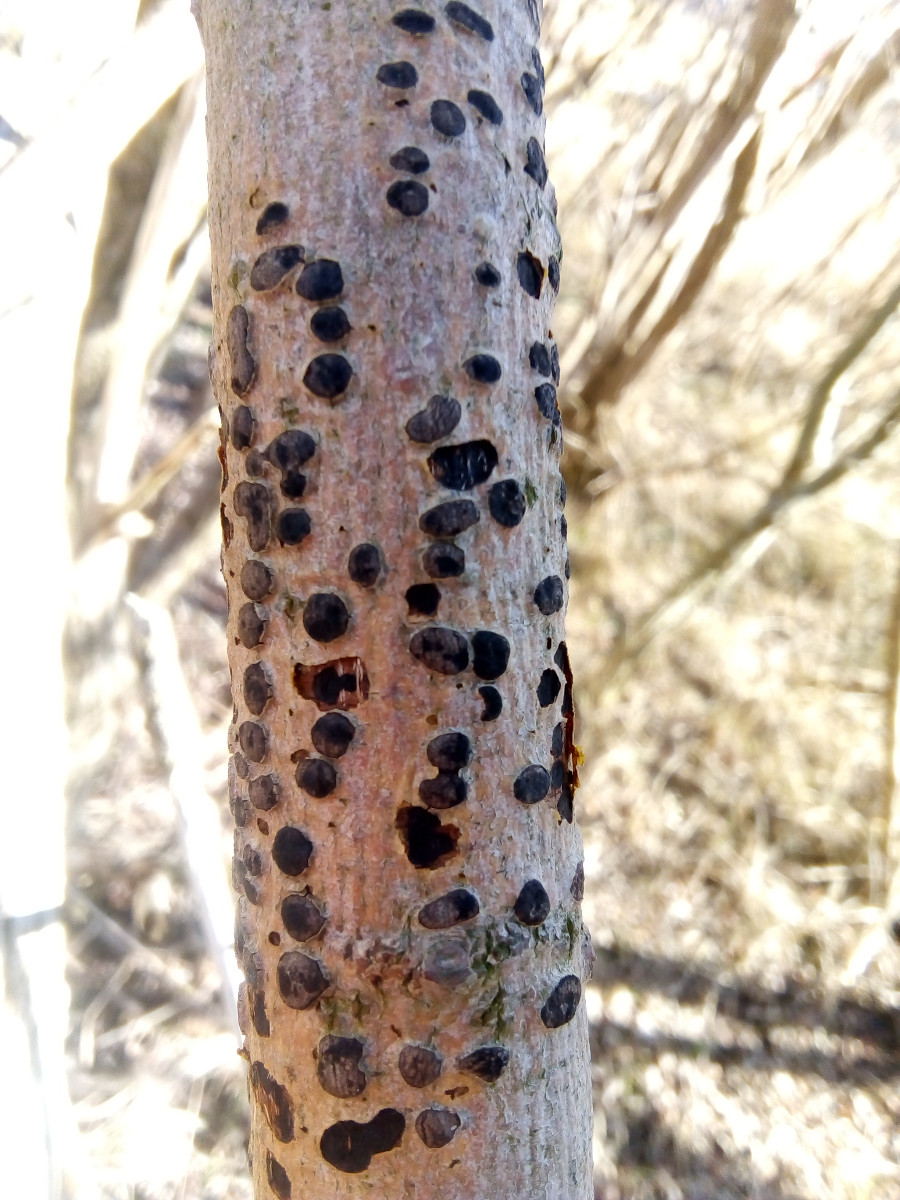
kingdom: Fungi
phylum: Ascomycota
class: Sordariomycetes
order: Xylariales
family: Diatrypaceae
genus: Diatrype
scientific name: Diatrype bullata
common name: pile-kulskorpe
